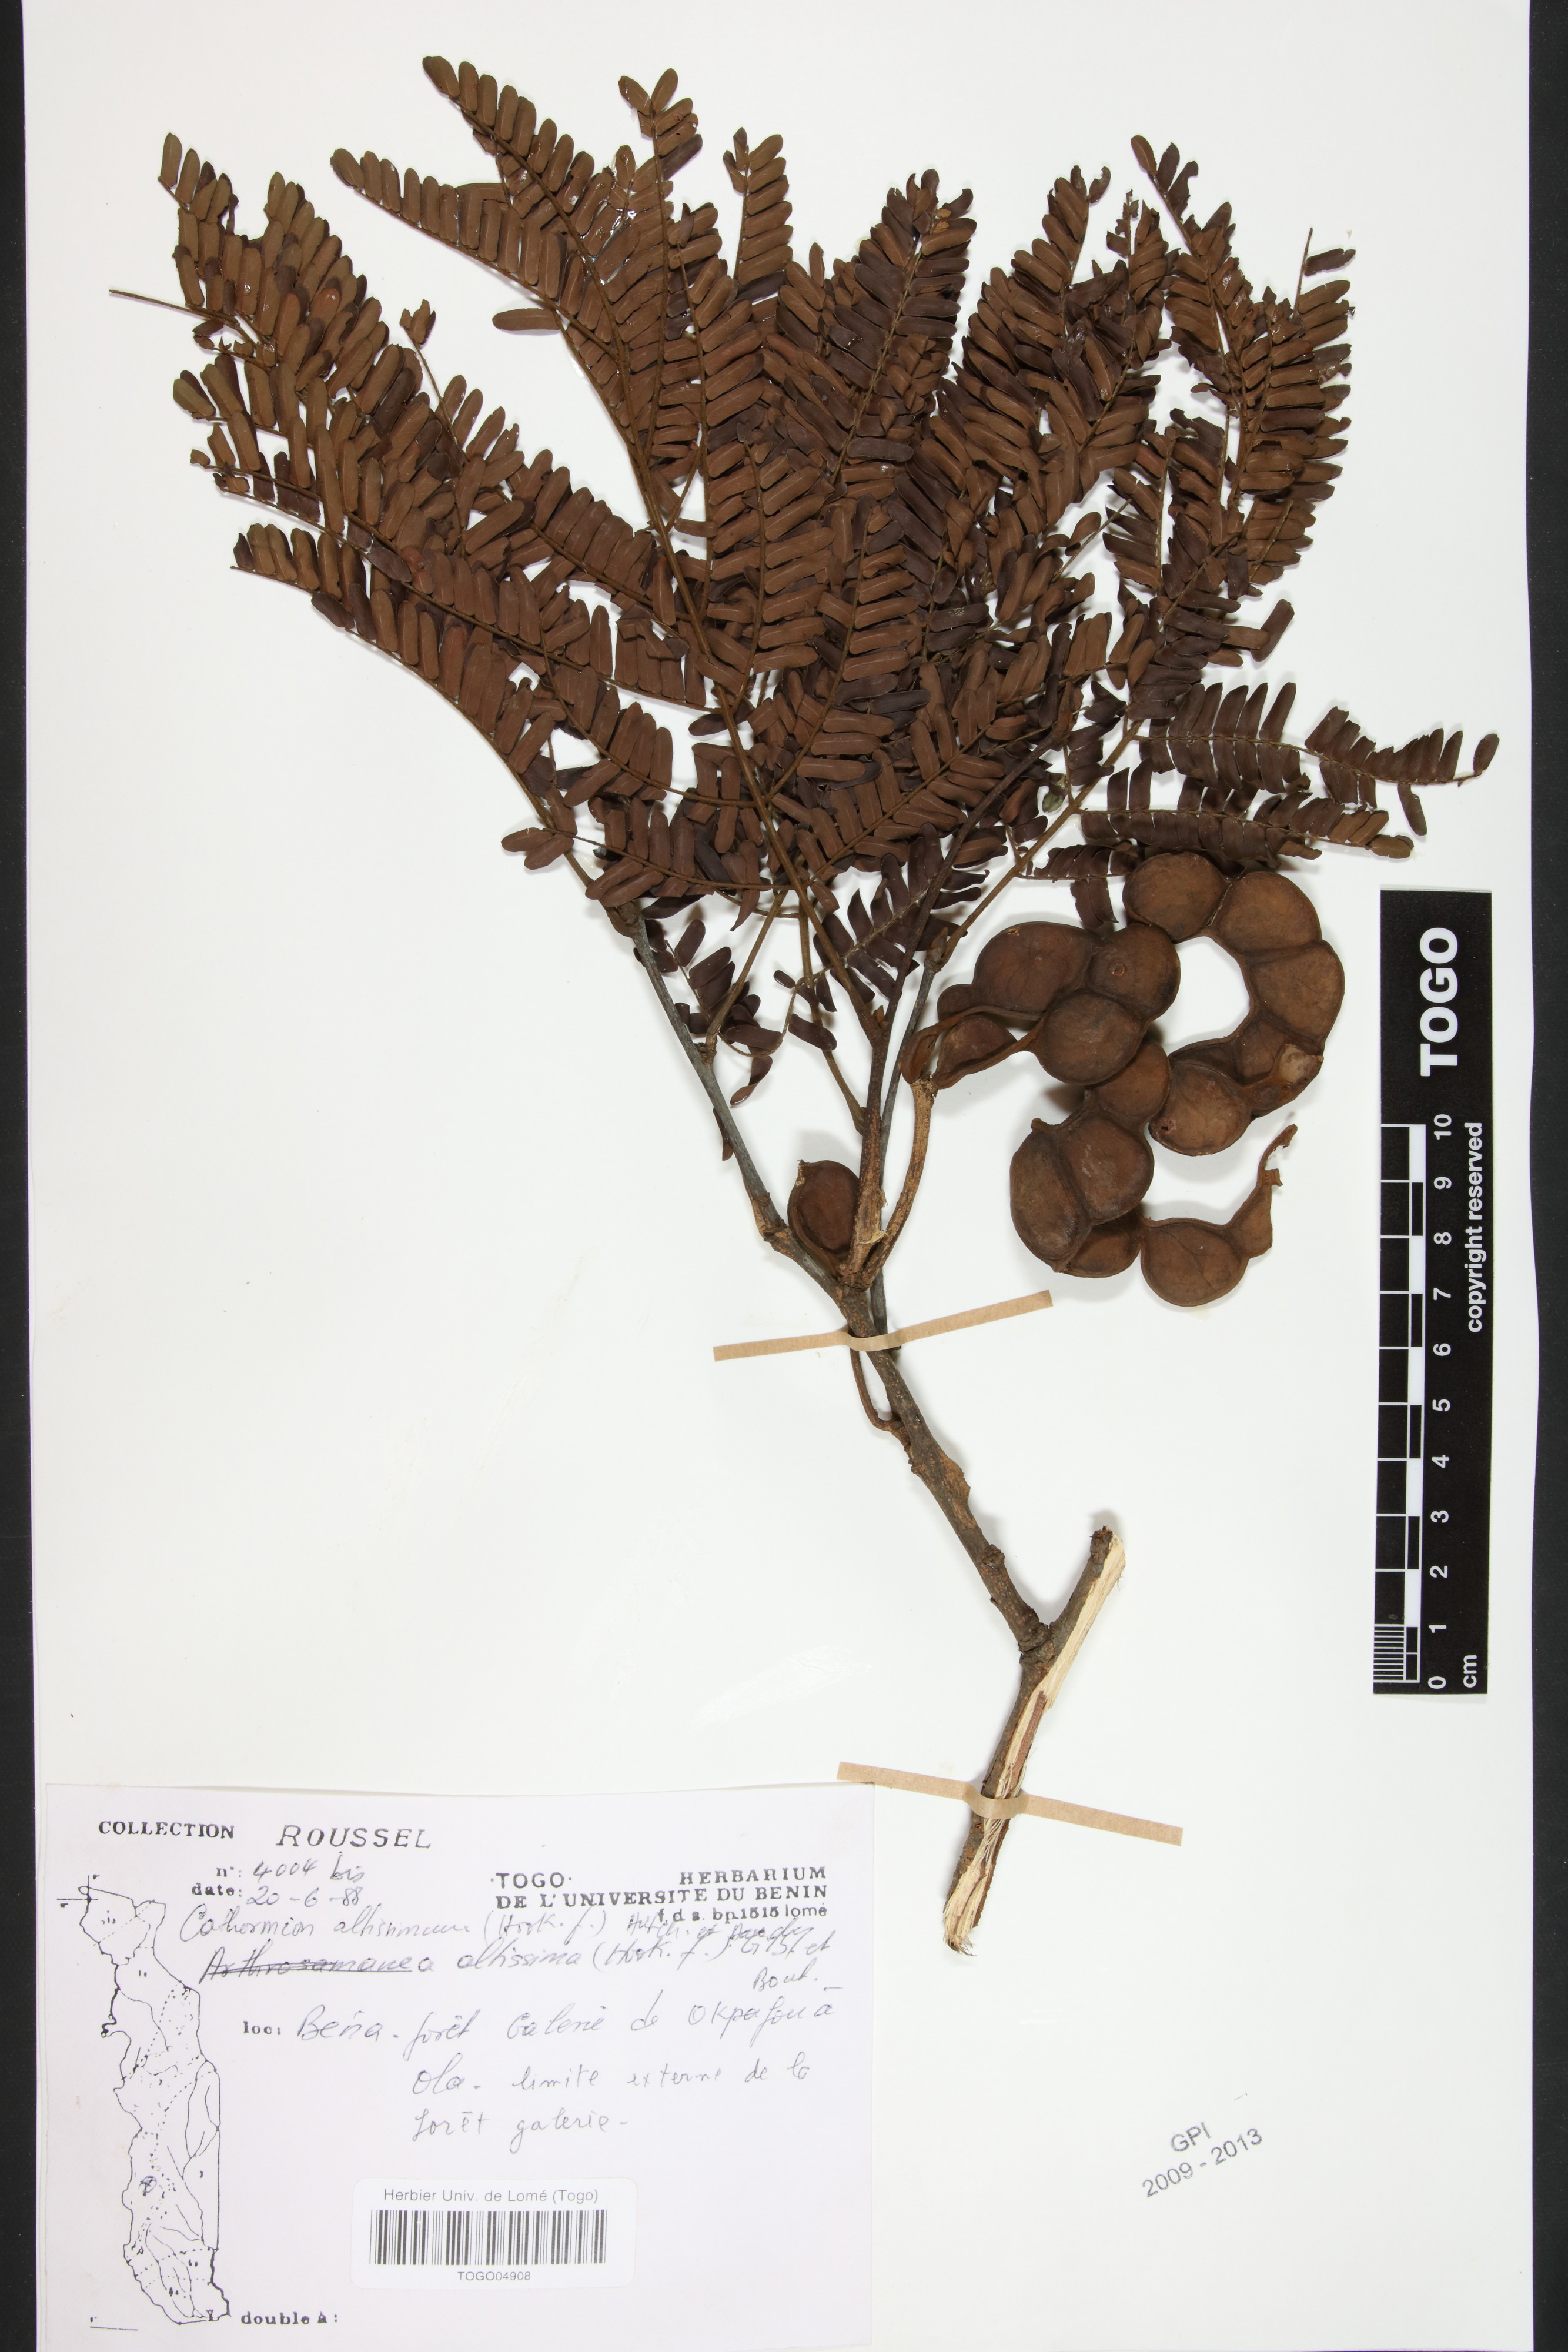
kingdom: Plantae
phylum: Tracheophyta
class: Magnoliopsida
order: Fabales
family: Fabaceae
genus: Albizia
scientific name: Albizia altissima
